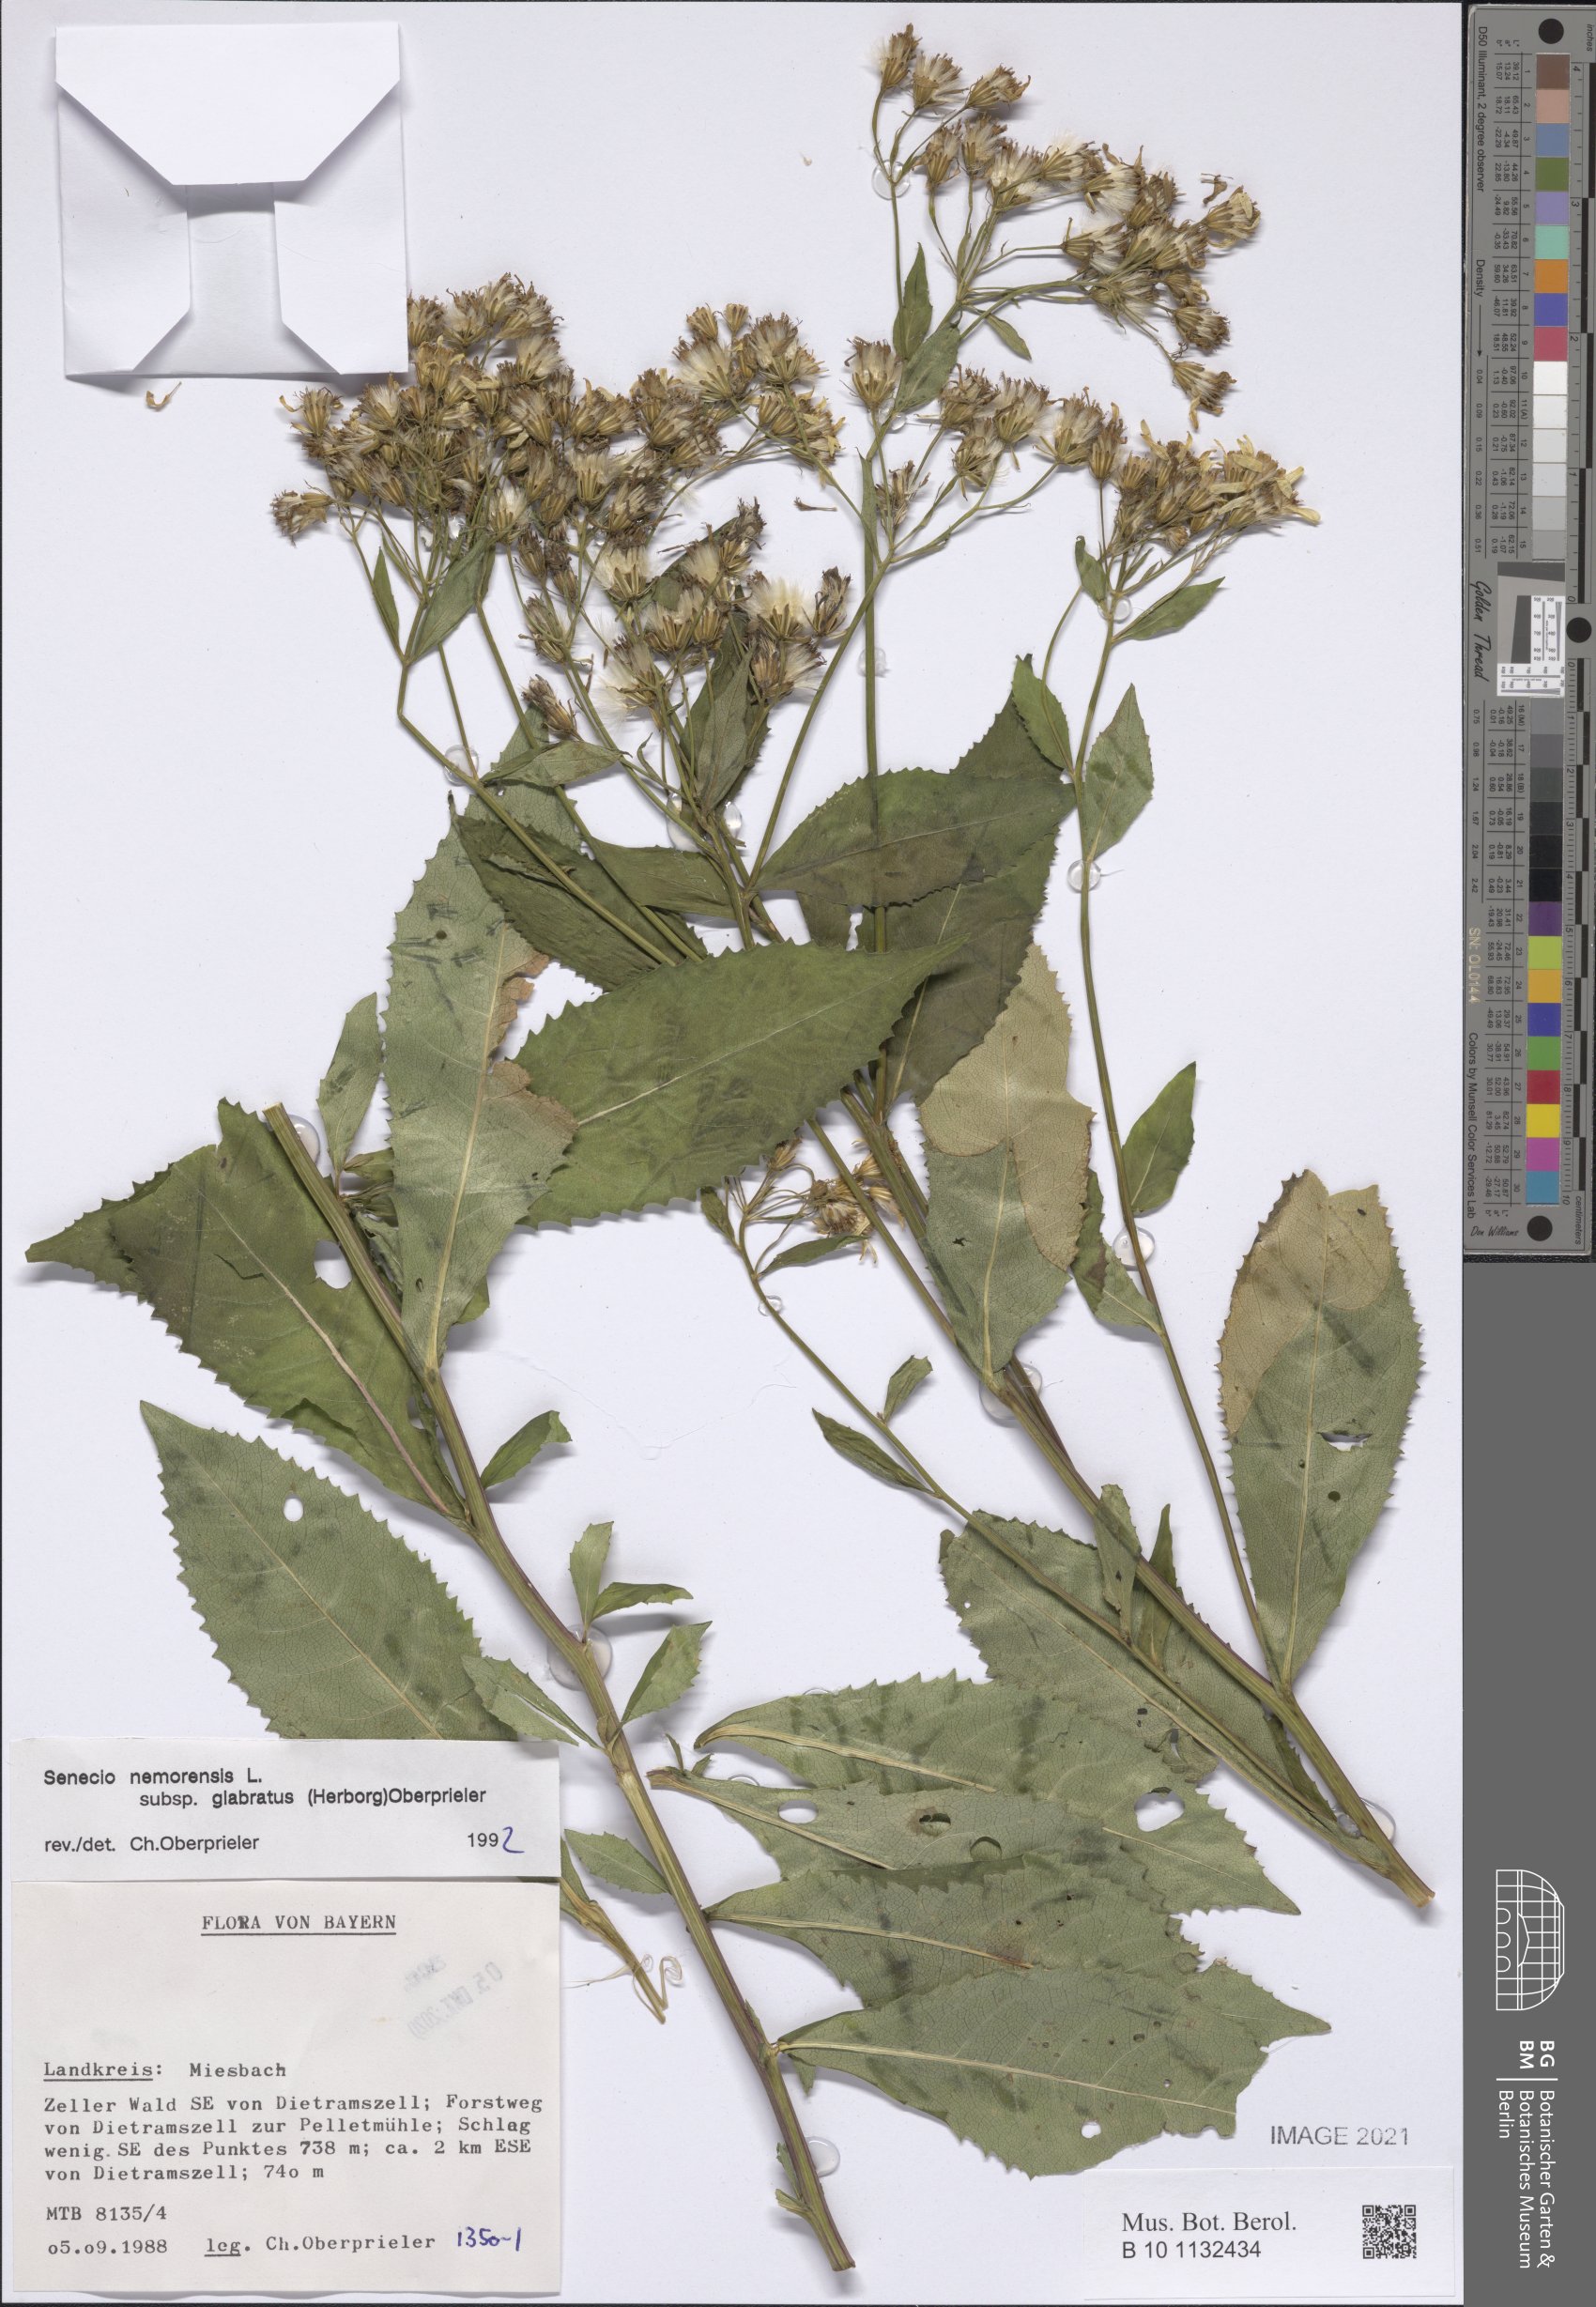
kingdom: Plantae
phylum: Tracheophyta
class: Magnoliopsida
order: Asterales
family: Asteraceae
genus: Senecio
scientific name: Senecio germanicus
